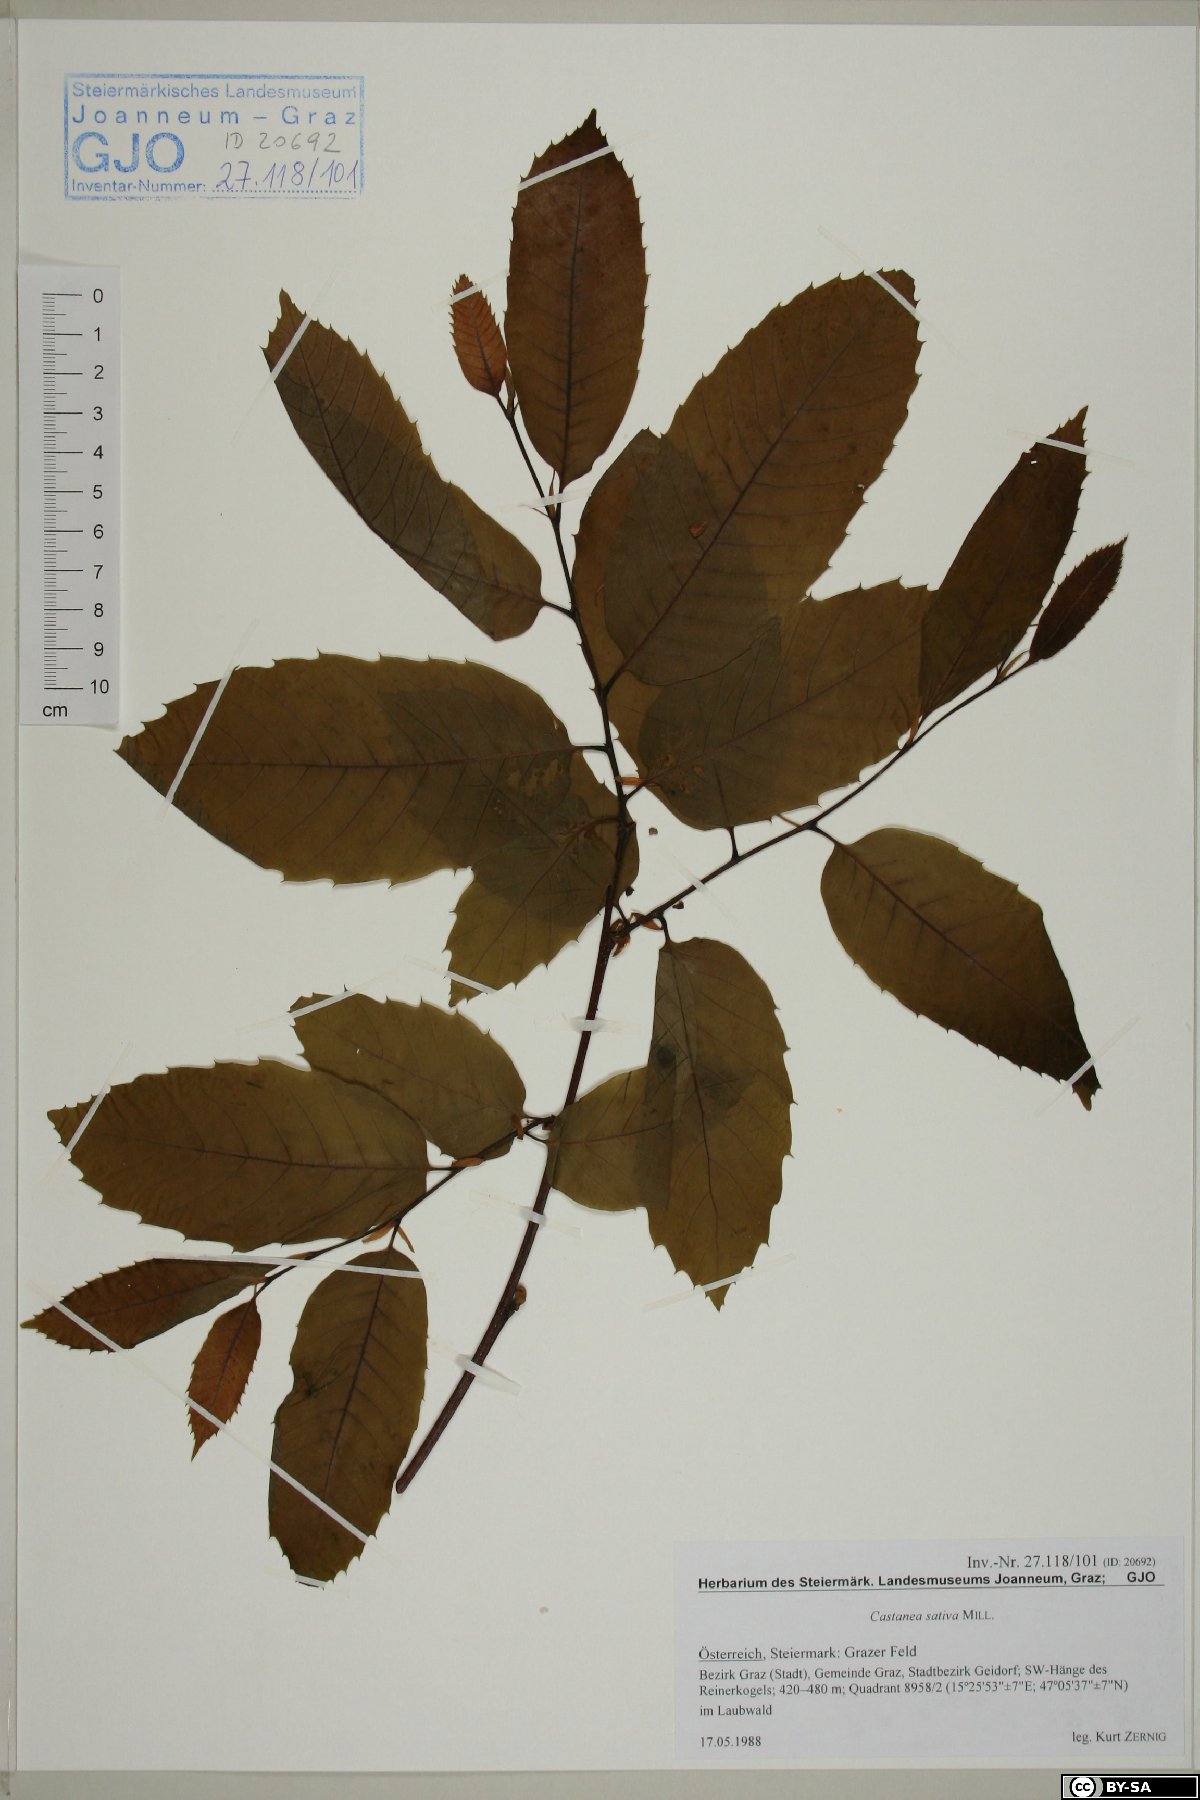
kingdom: Plantae
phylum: Tracheophyta
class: Magnoliopsida
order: Fagales
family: Fagaceae
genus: Castanea
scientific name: Castanea sativa
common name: Sweet chestnut
